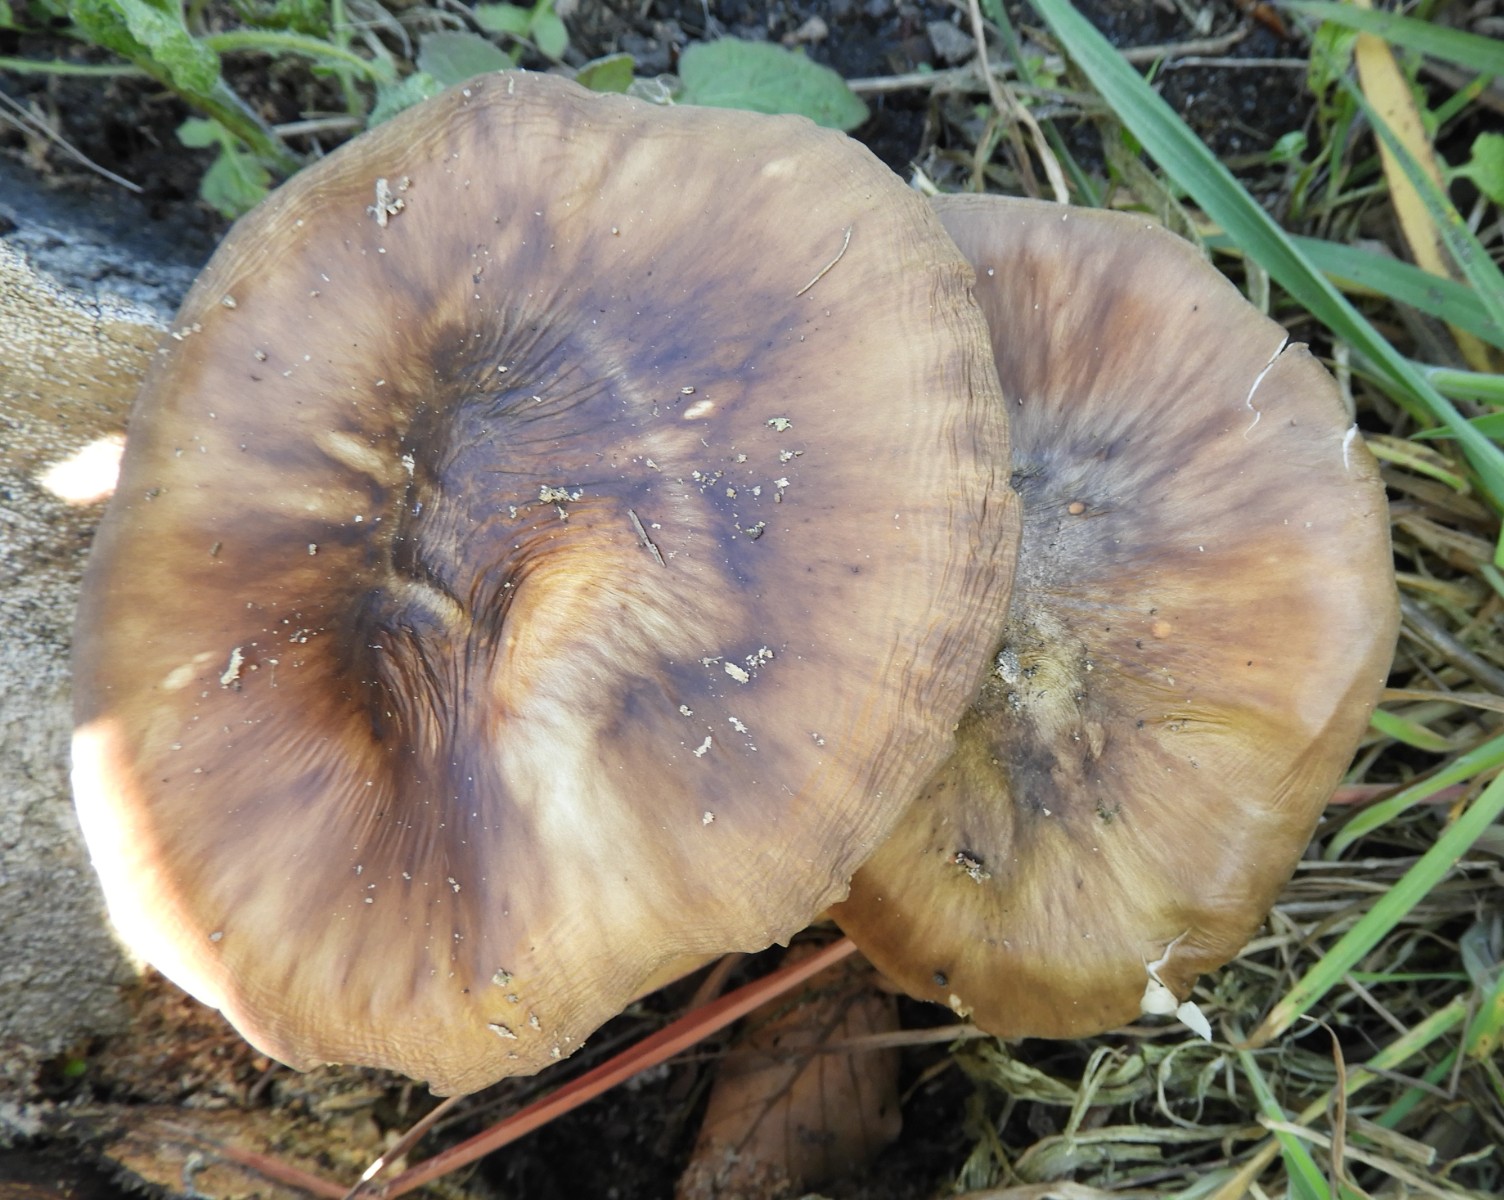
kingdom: Fungi
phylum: Basidiomycota
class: Agaricomycetes
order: Agaricales
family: Pluteaceae
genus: Pluteus
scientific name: Pluteus cervinus
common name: sodfarvet skærmhat
